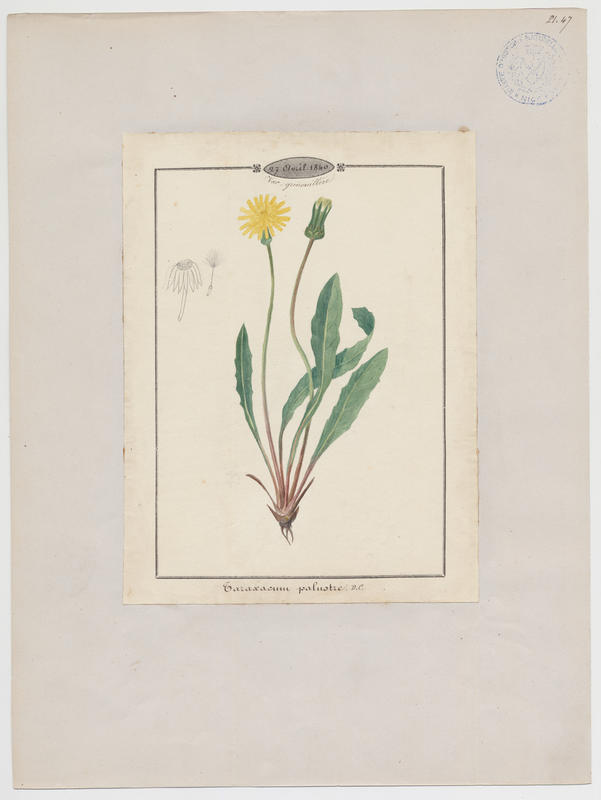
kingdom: Plantae
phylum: Tracheophyta
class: Magnoliopsida
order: Asterales
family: Asteraceae
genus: Taraxacum
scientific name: Taraxacum palustre
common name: Marsh dandelion
